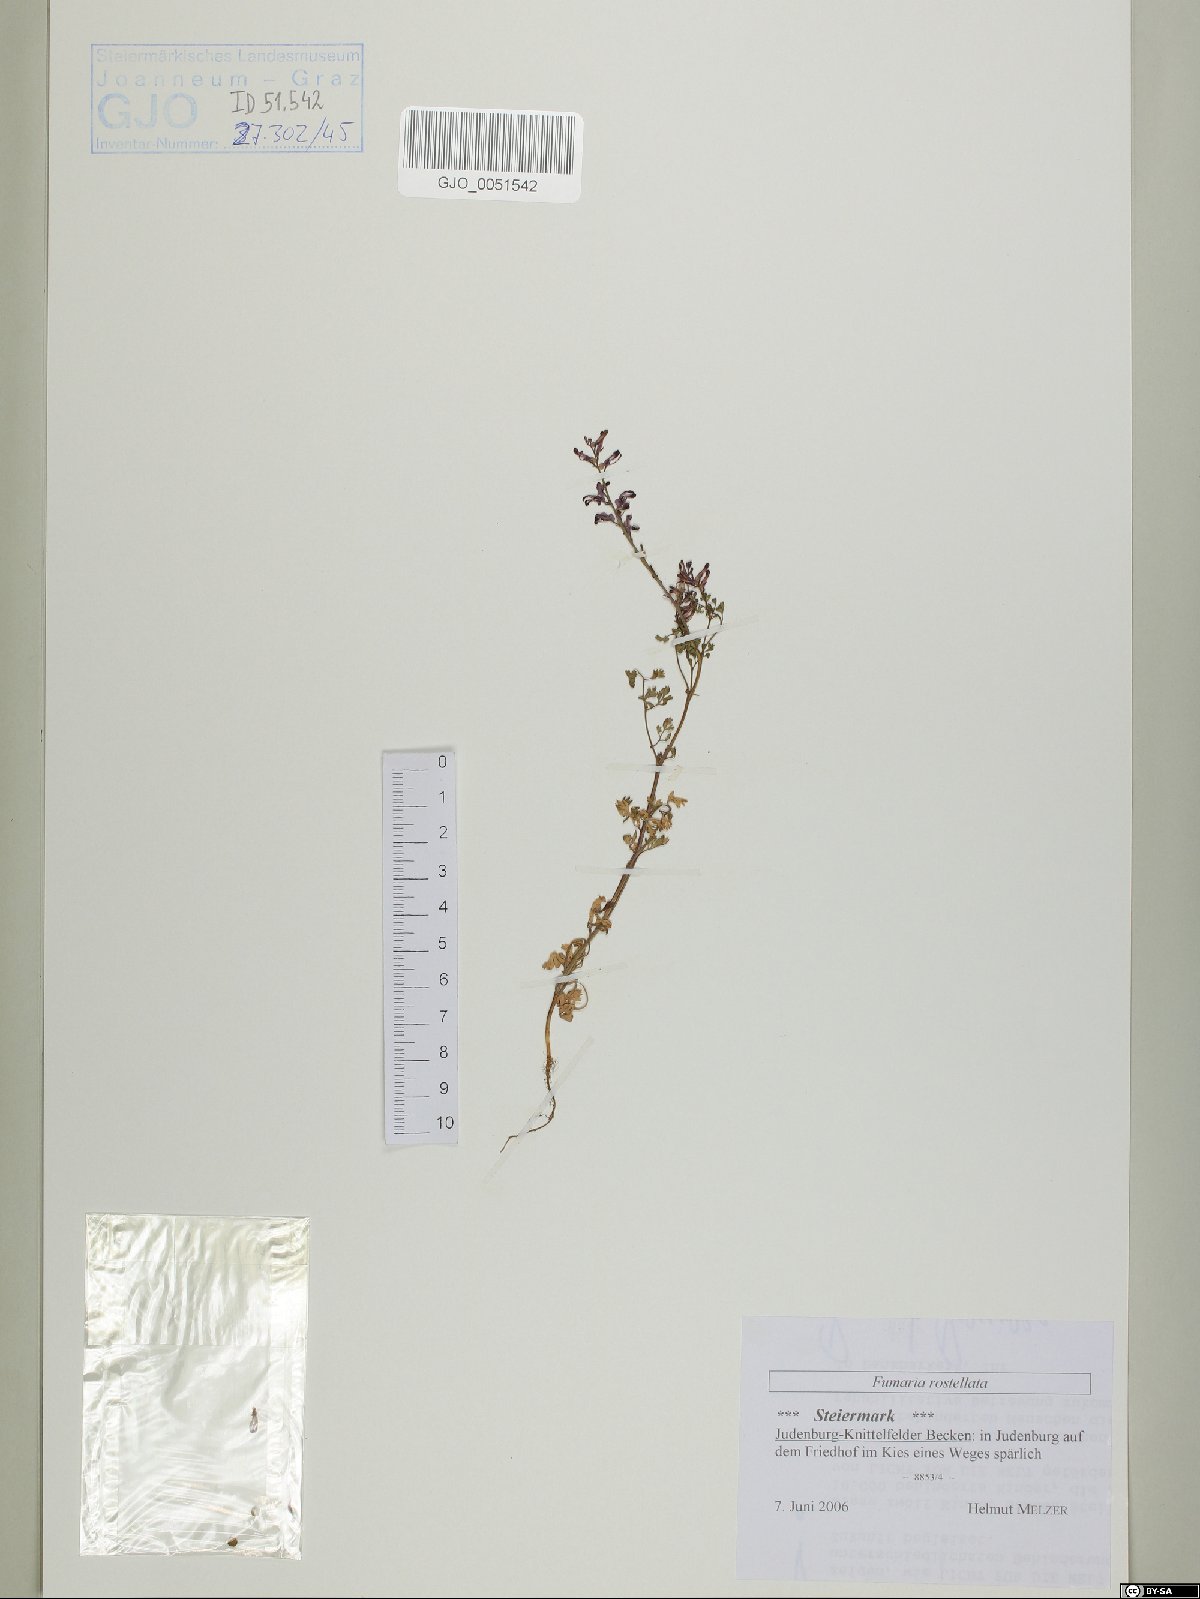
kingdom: Plantae
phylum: Tracheophyta
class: Magnoliopsida
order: Ranunculales
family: Papaveraceae
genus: Fumaria
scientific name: Fumaria rostellata
